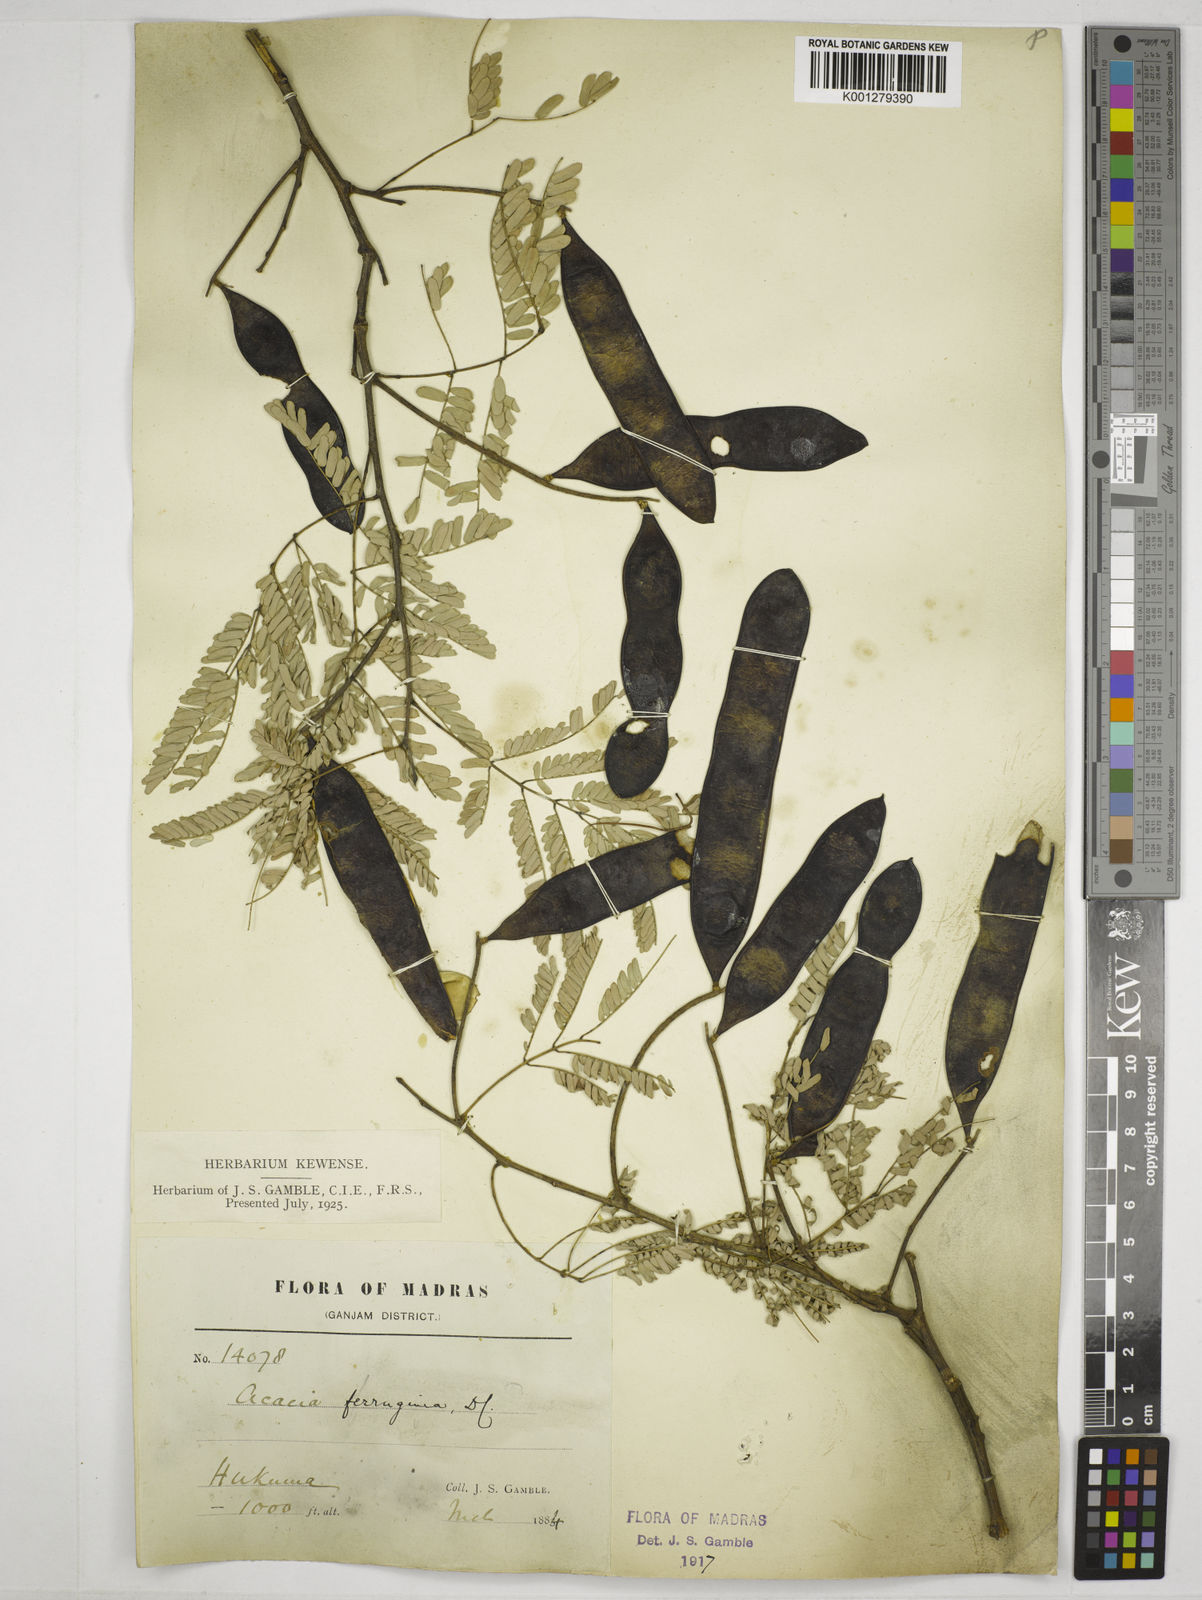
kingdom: Plantae
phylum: Tracheophyta
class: Magnoliopsida
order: Fabales
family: Fabaceae
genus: Senegalia
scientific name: Senegalia ferruginea
